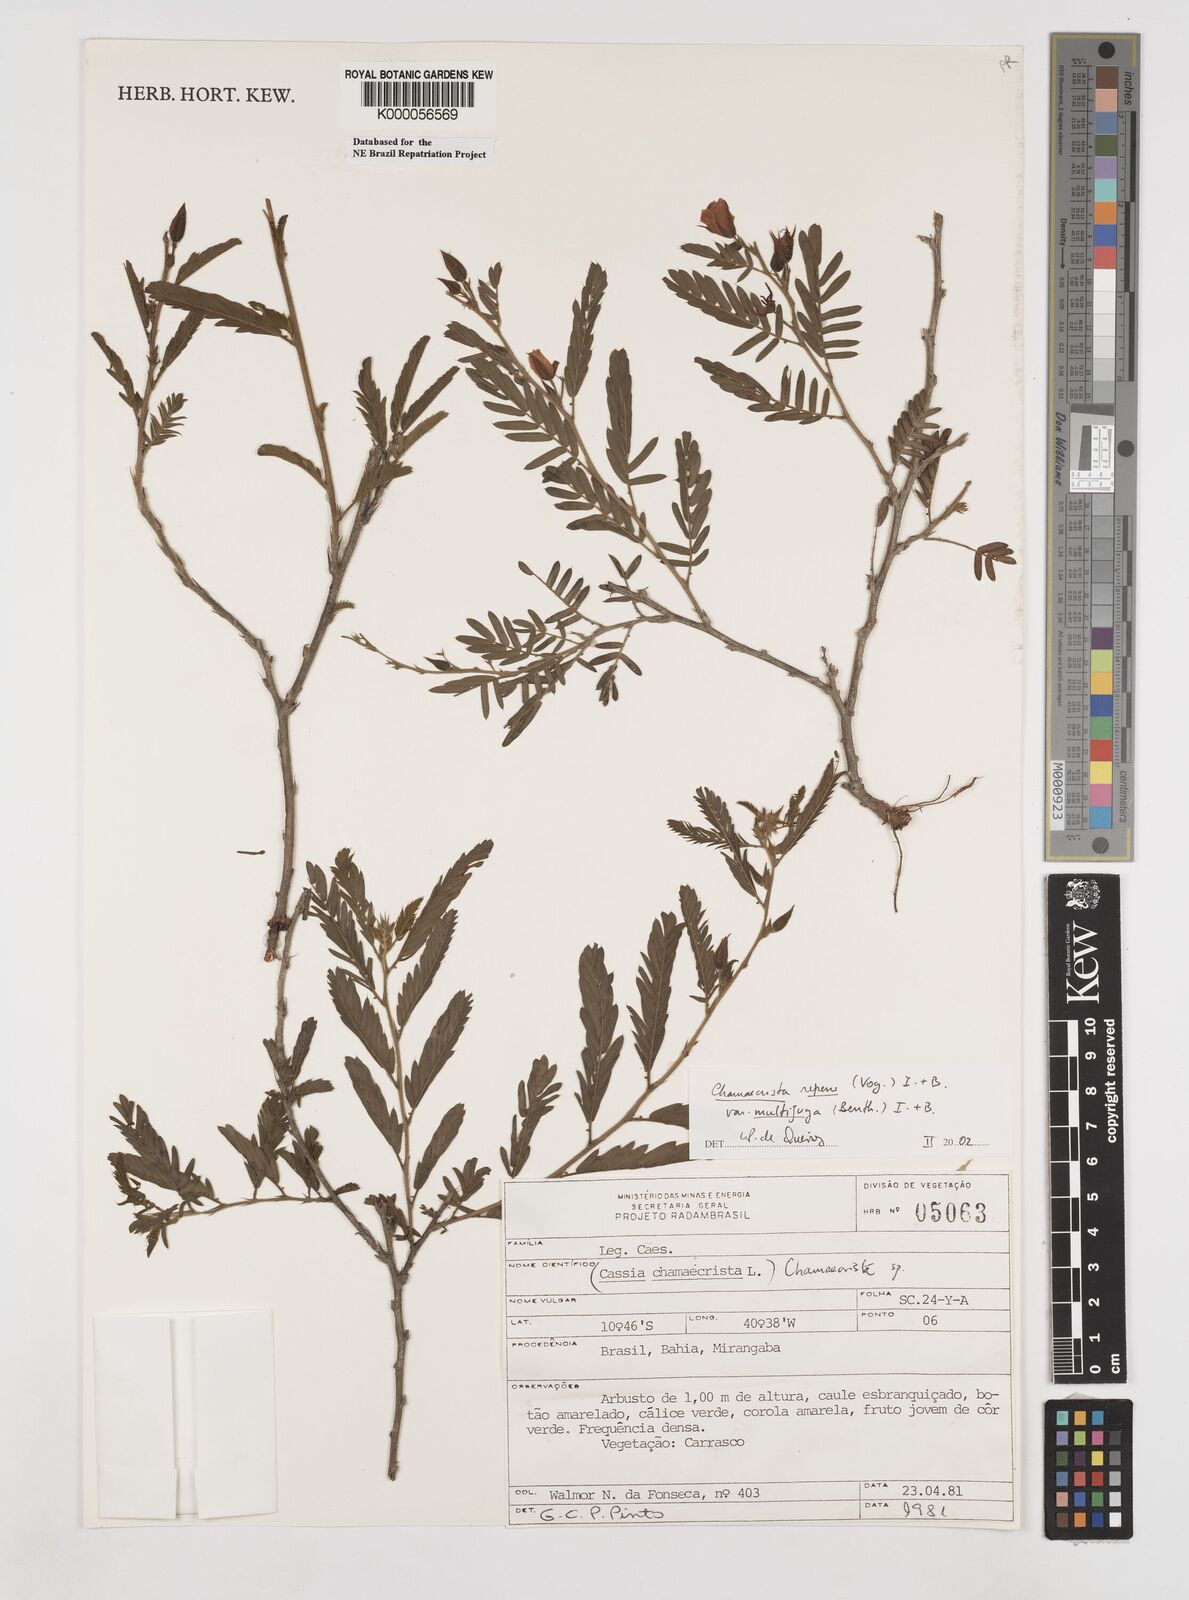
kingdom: Plantae
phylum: Tracheophyta
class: Magnoliopsida
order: Fabales
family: Fabaceae
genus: Chamaecrista
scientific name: Chamaecrista repens
